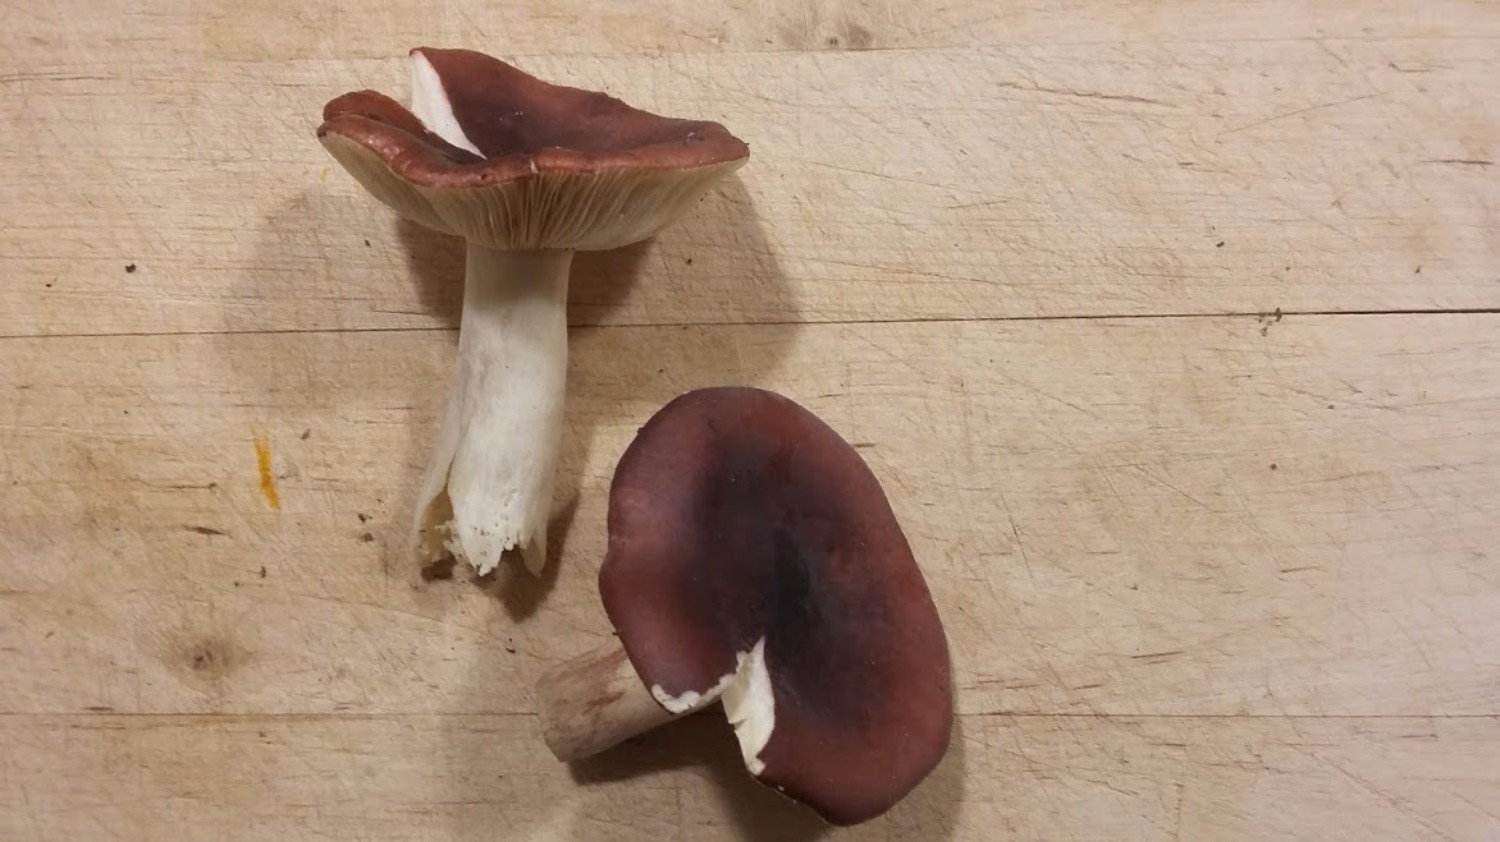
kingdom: Fungi
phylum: Basidiomycota
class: Agaricomycetes
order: Russulales
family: Russulaceae
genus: Russula
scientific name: Russula sardonia
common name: citronbladet skørhat
